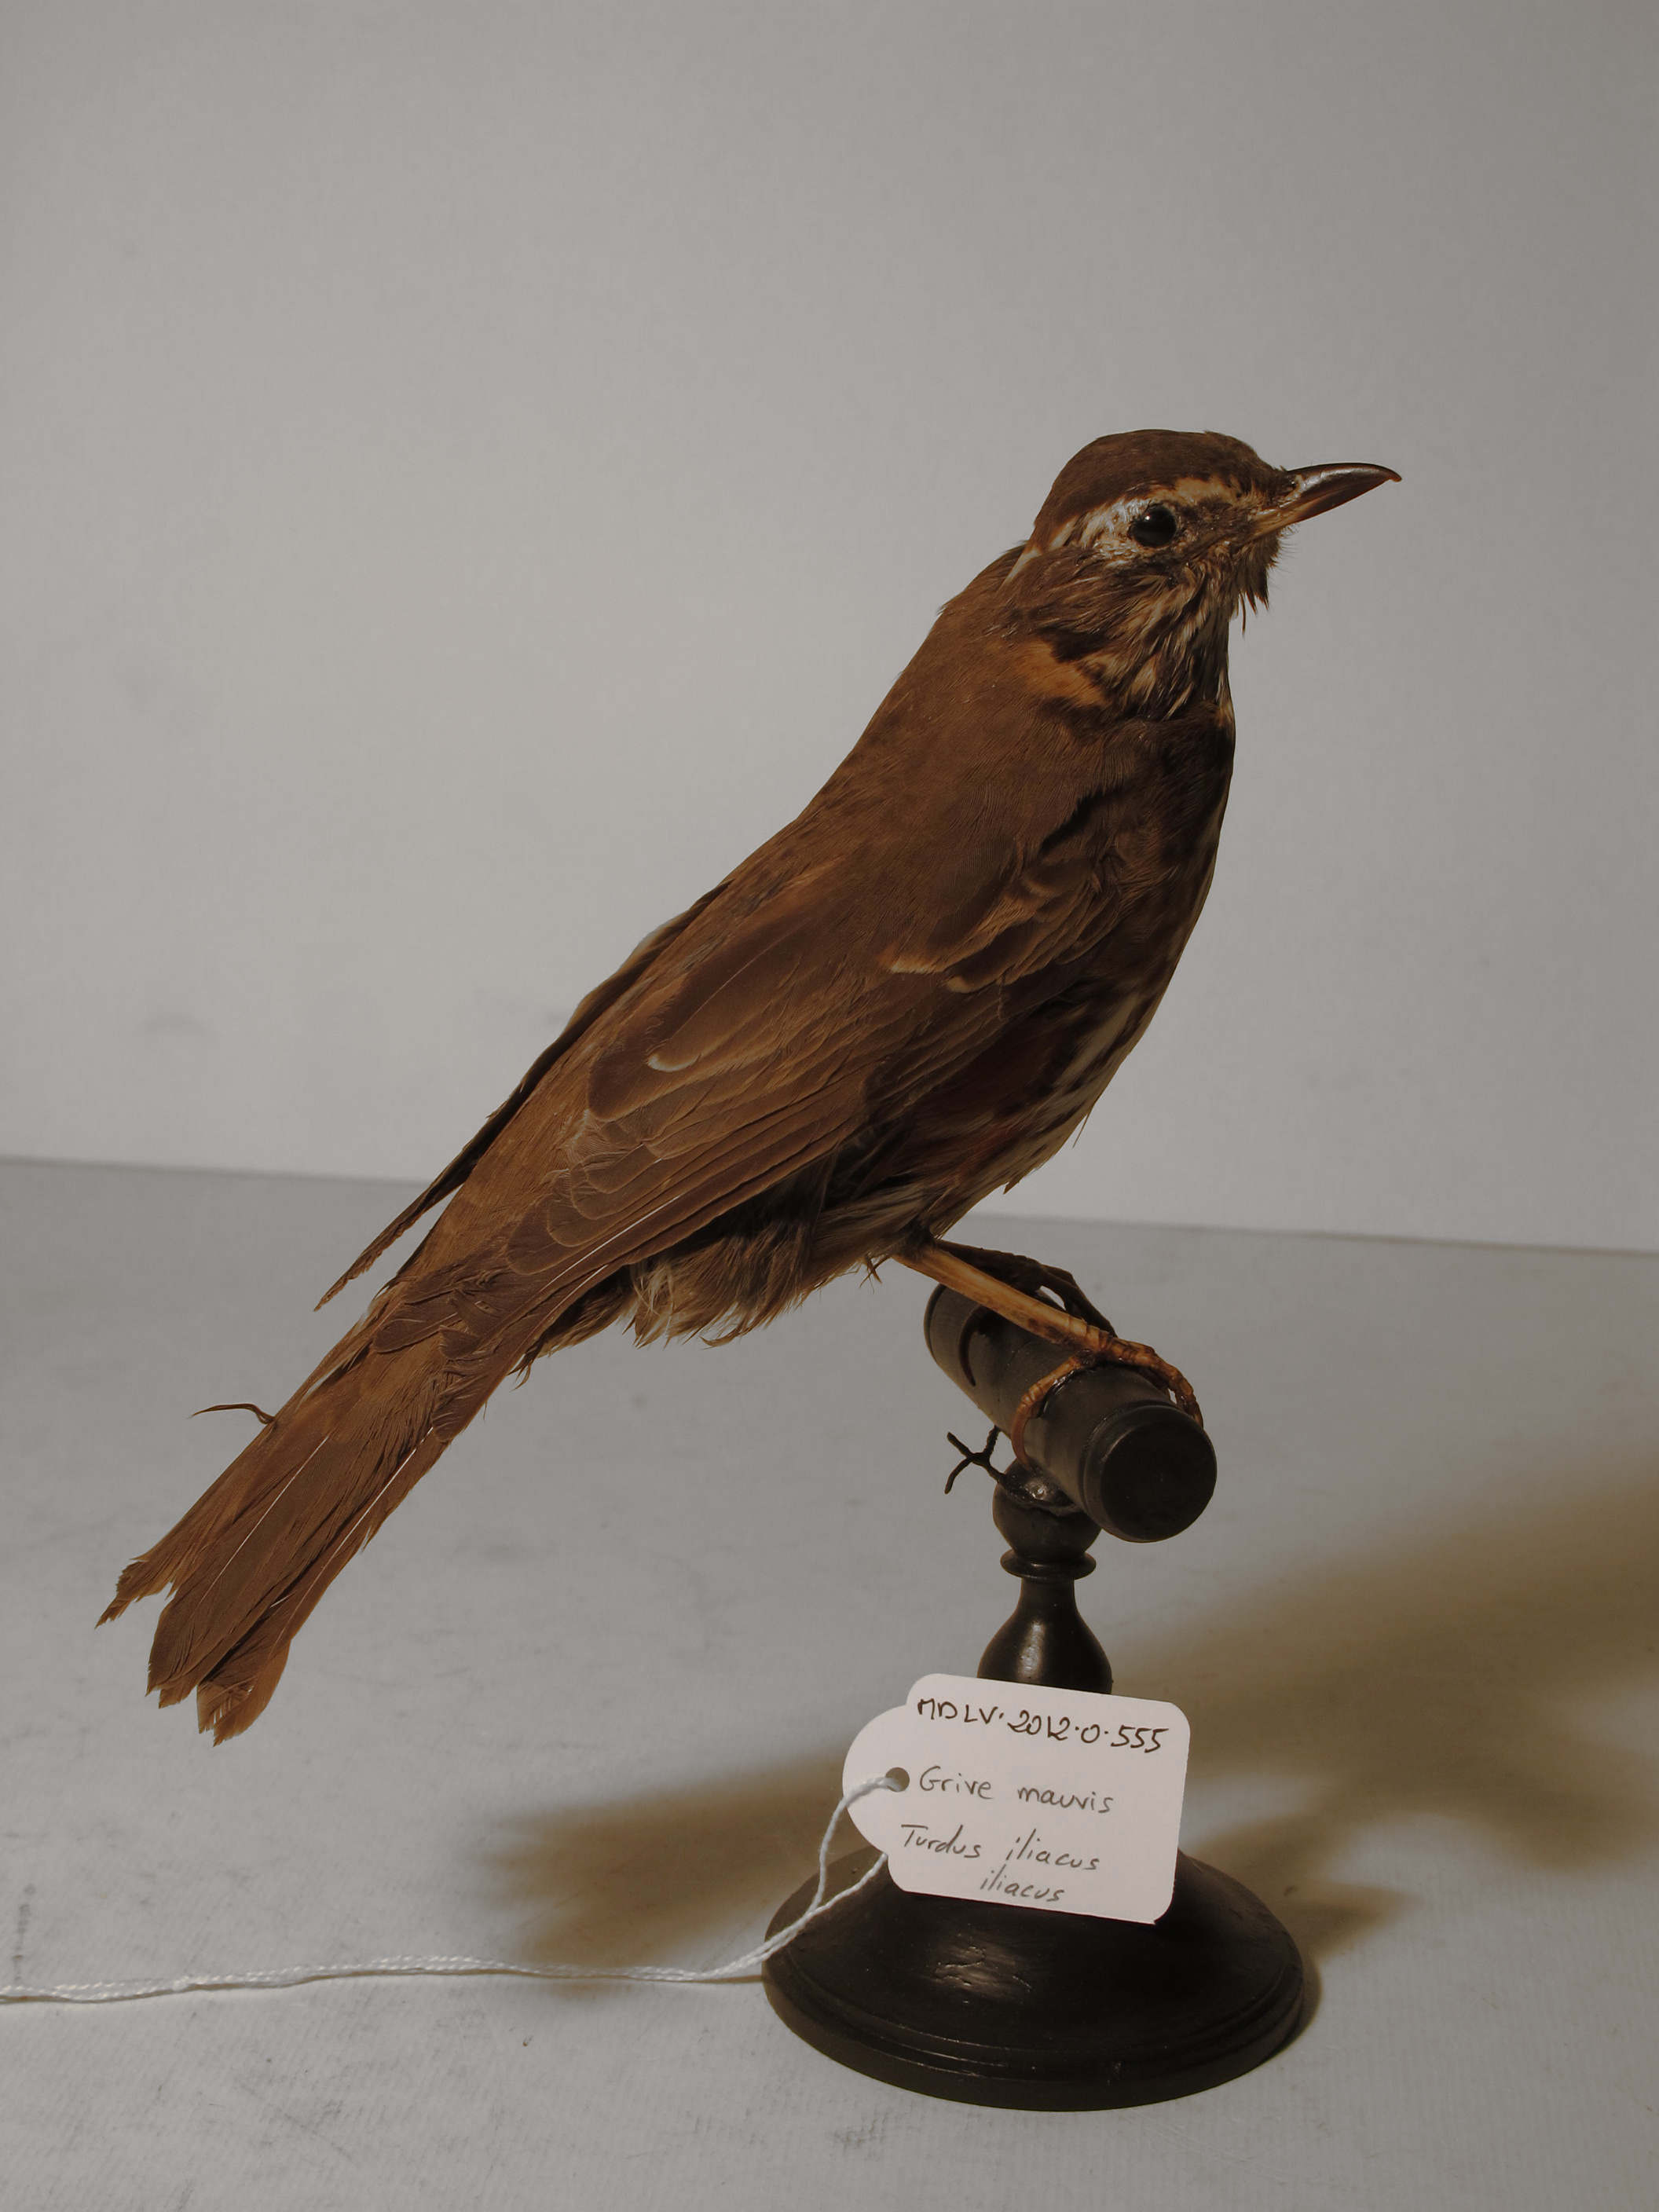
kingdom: Animalia
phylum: Chordata
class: Aves
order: Passeriformes
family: Turdidae
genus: Turdus
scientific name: Turdus iliacus
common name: Redwing
